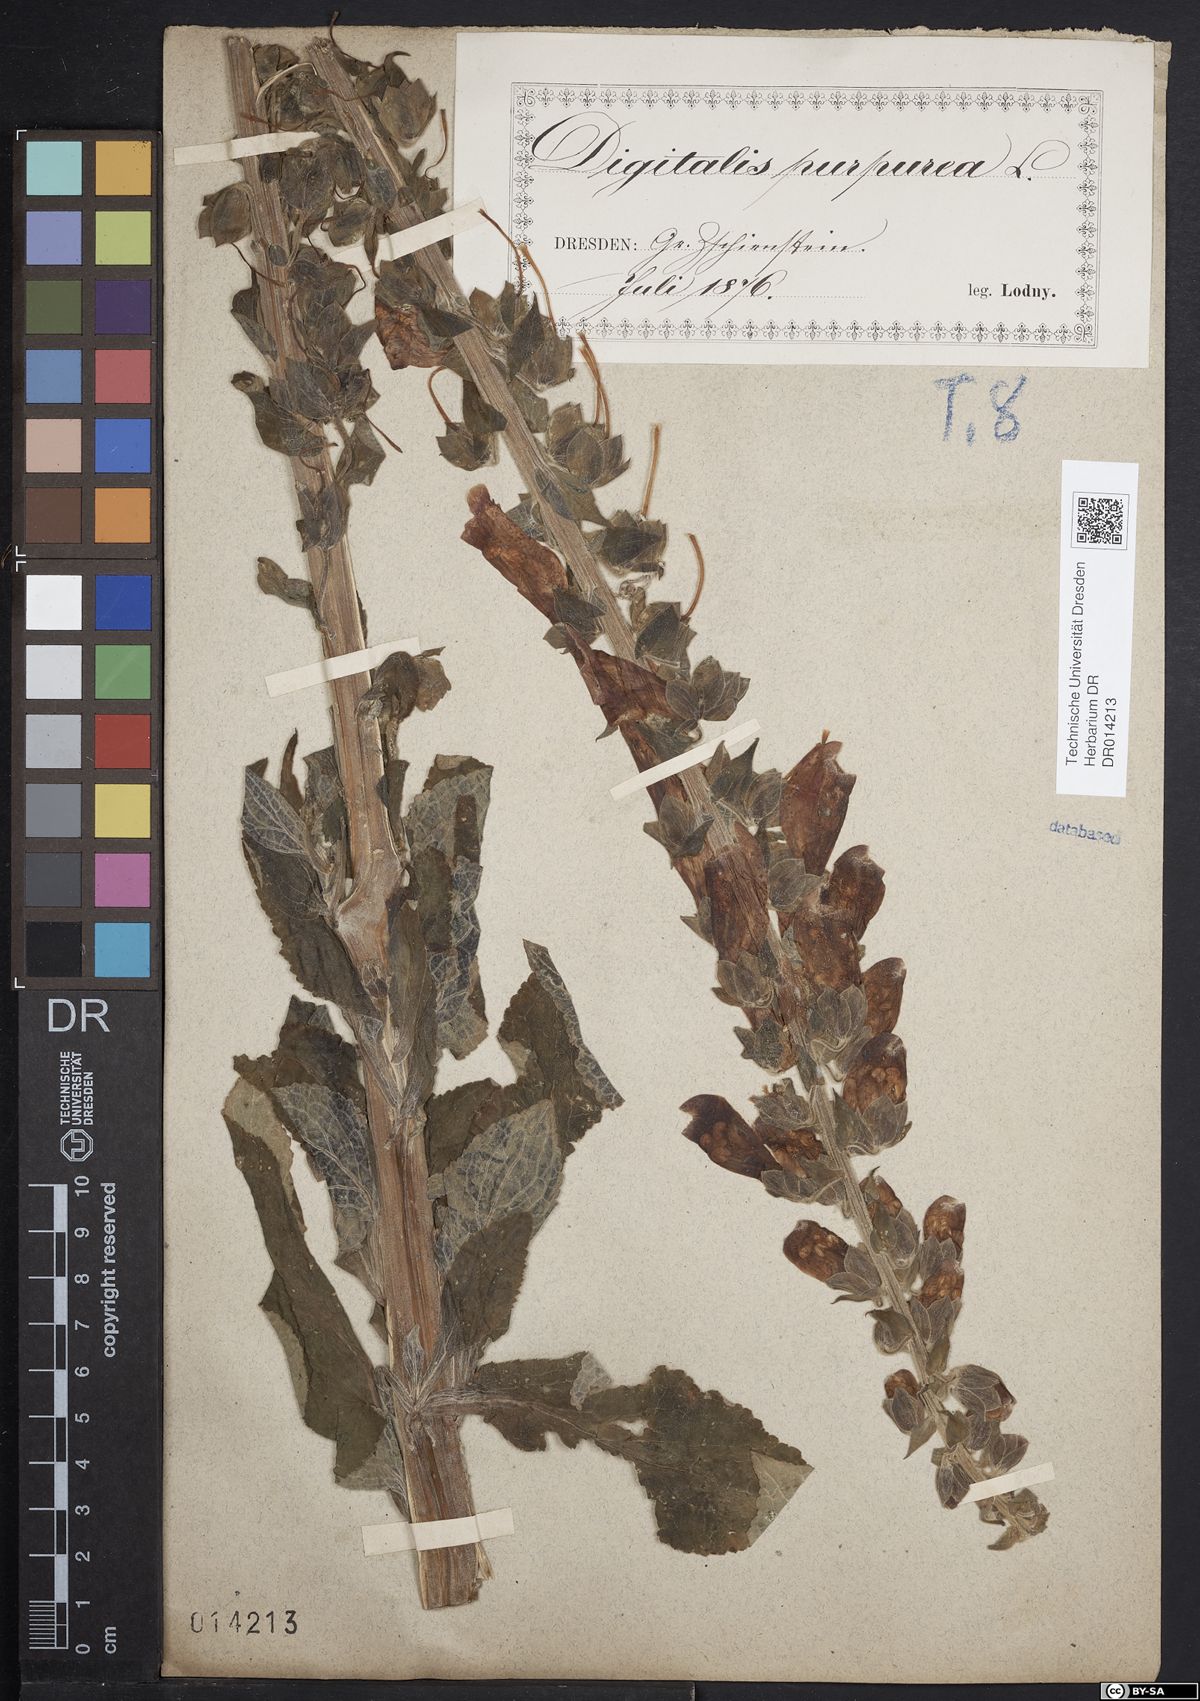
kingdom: Plantae
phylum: Tracheophyta
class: Magnoliopsida
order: Lamiales
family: Plantaginaceae
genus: Digitalis
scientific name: Digitalis purpurea
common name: Foxglove
